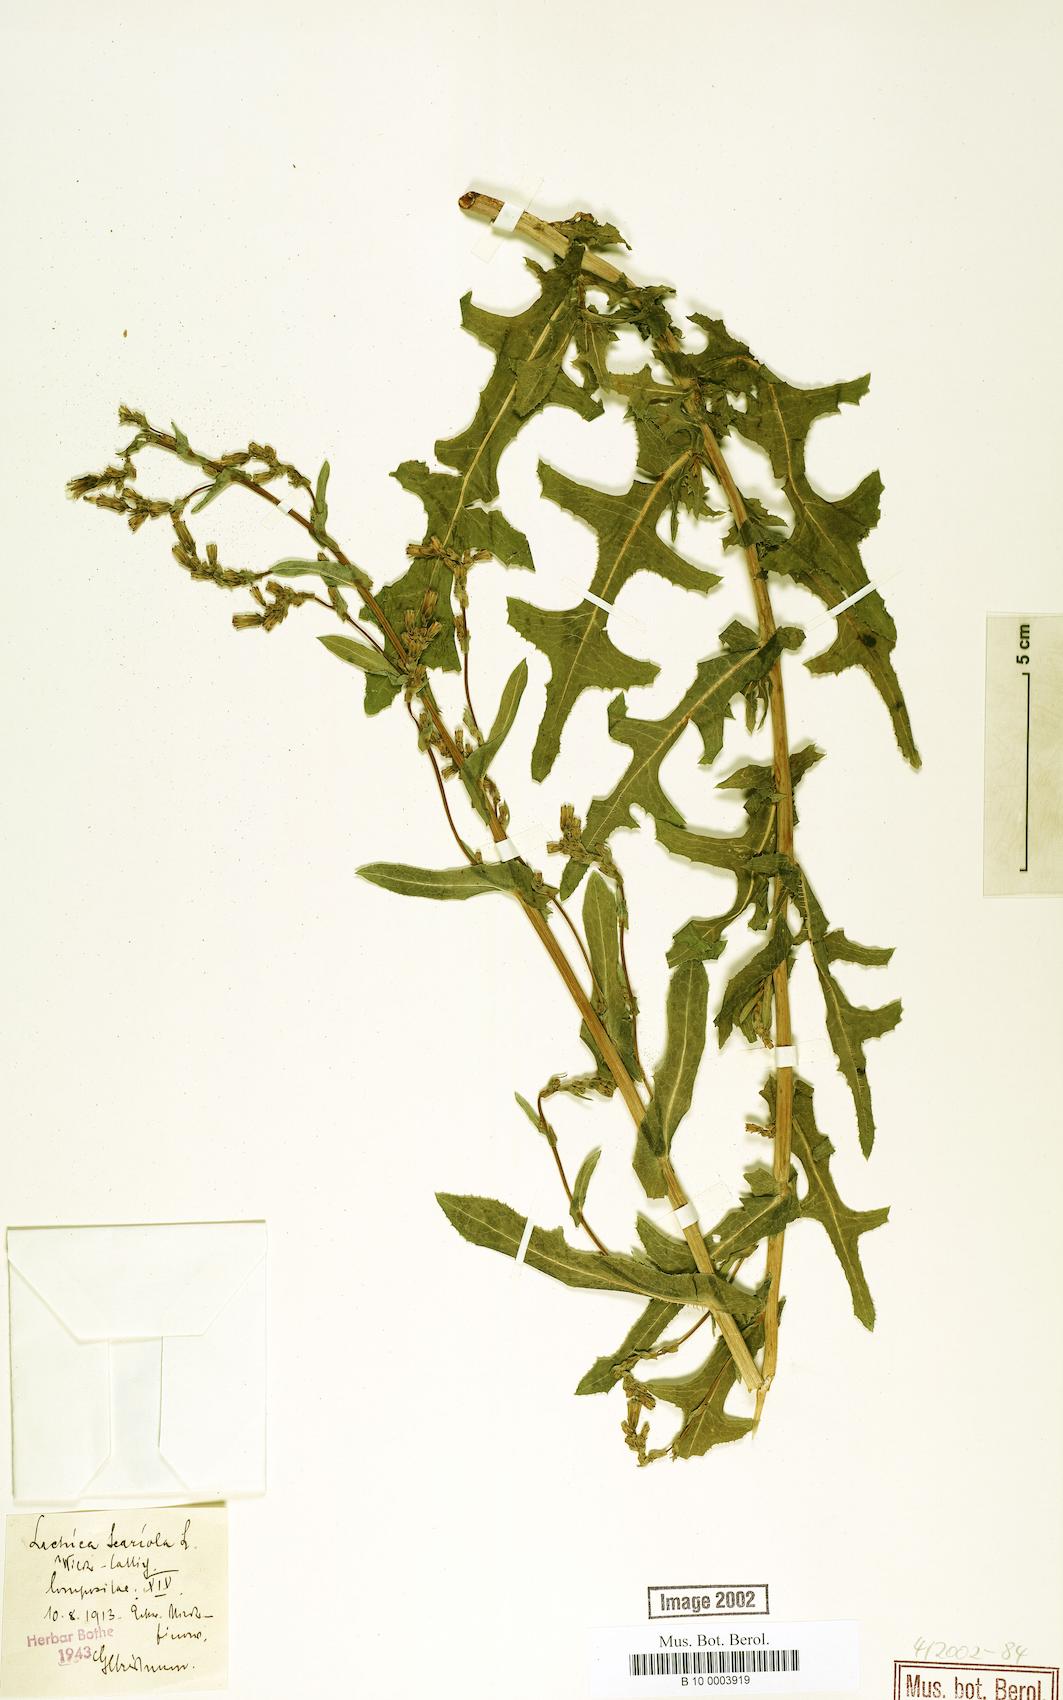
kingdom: Plantae
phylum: Tracheophyta
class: Magnoliopsida
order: Asterales
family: Asteraceae
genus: Lactuca
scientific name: Lactuca serriola
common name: Prickly lettuce
